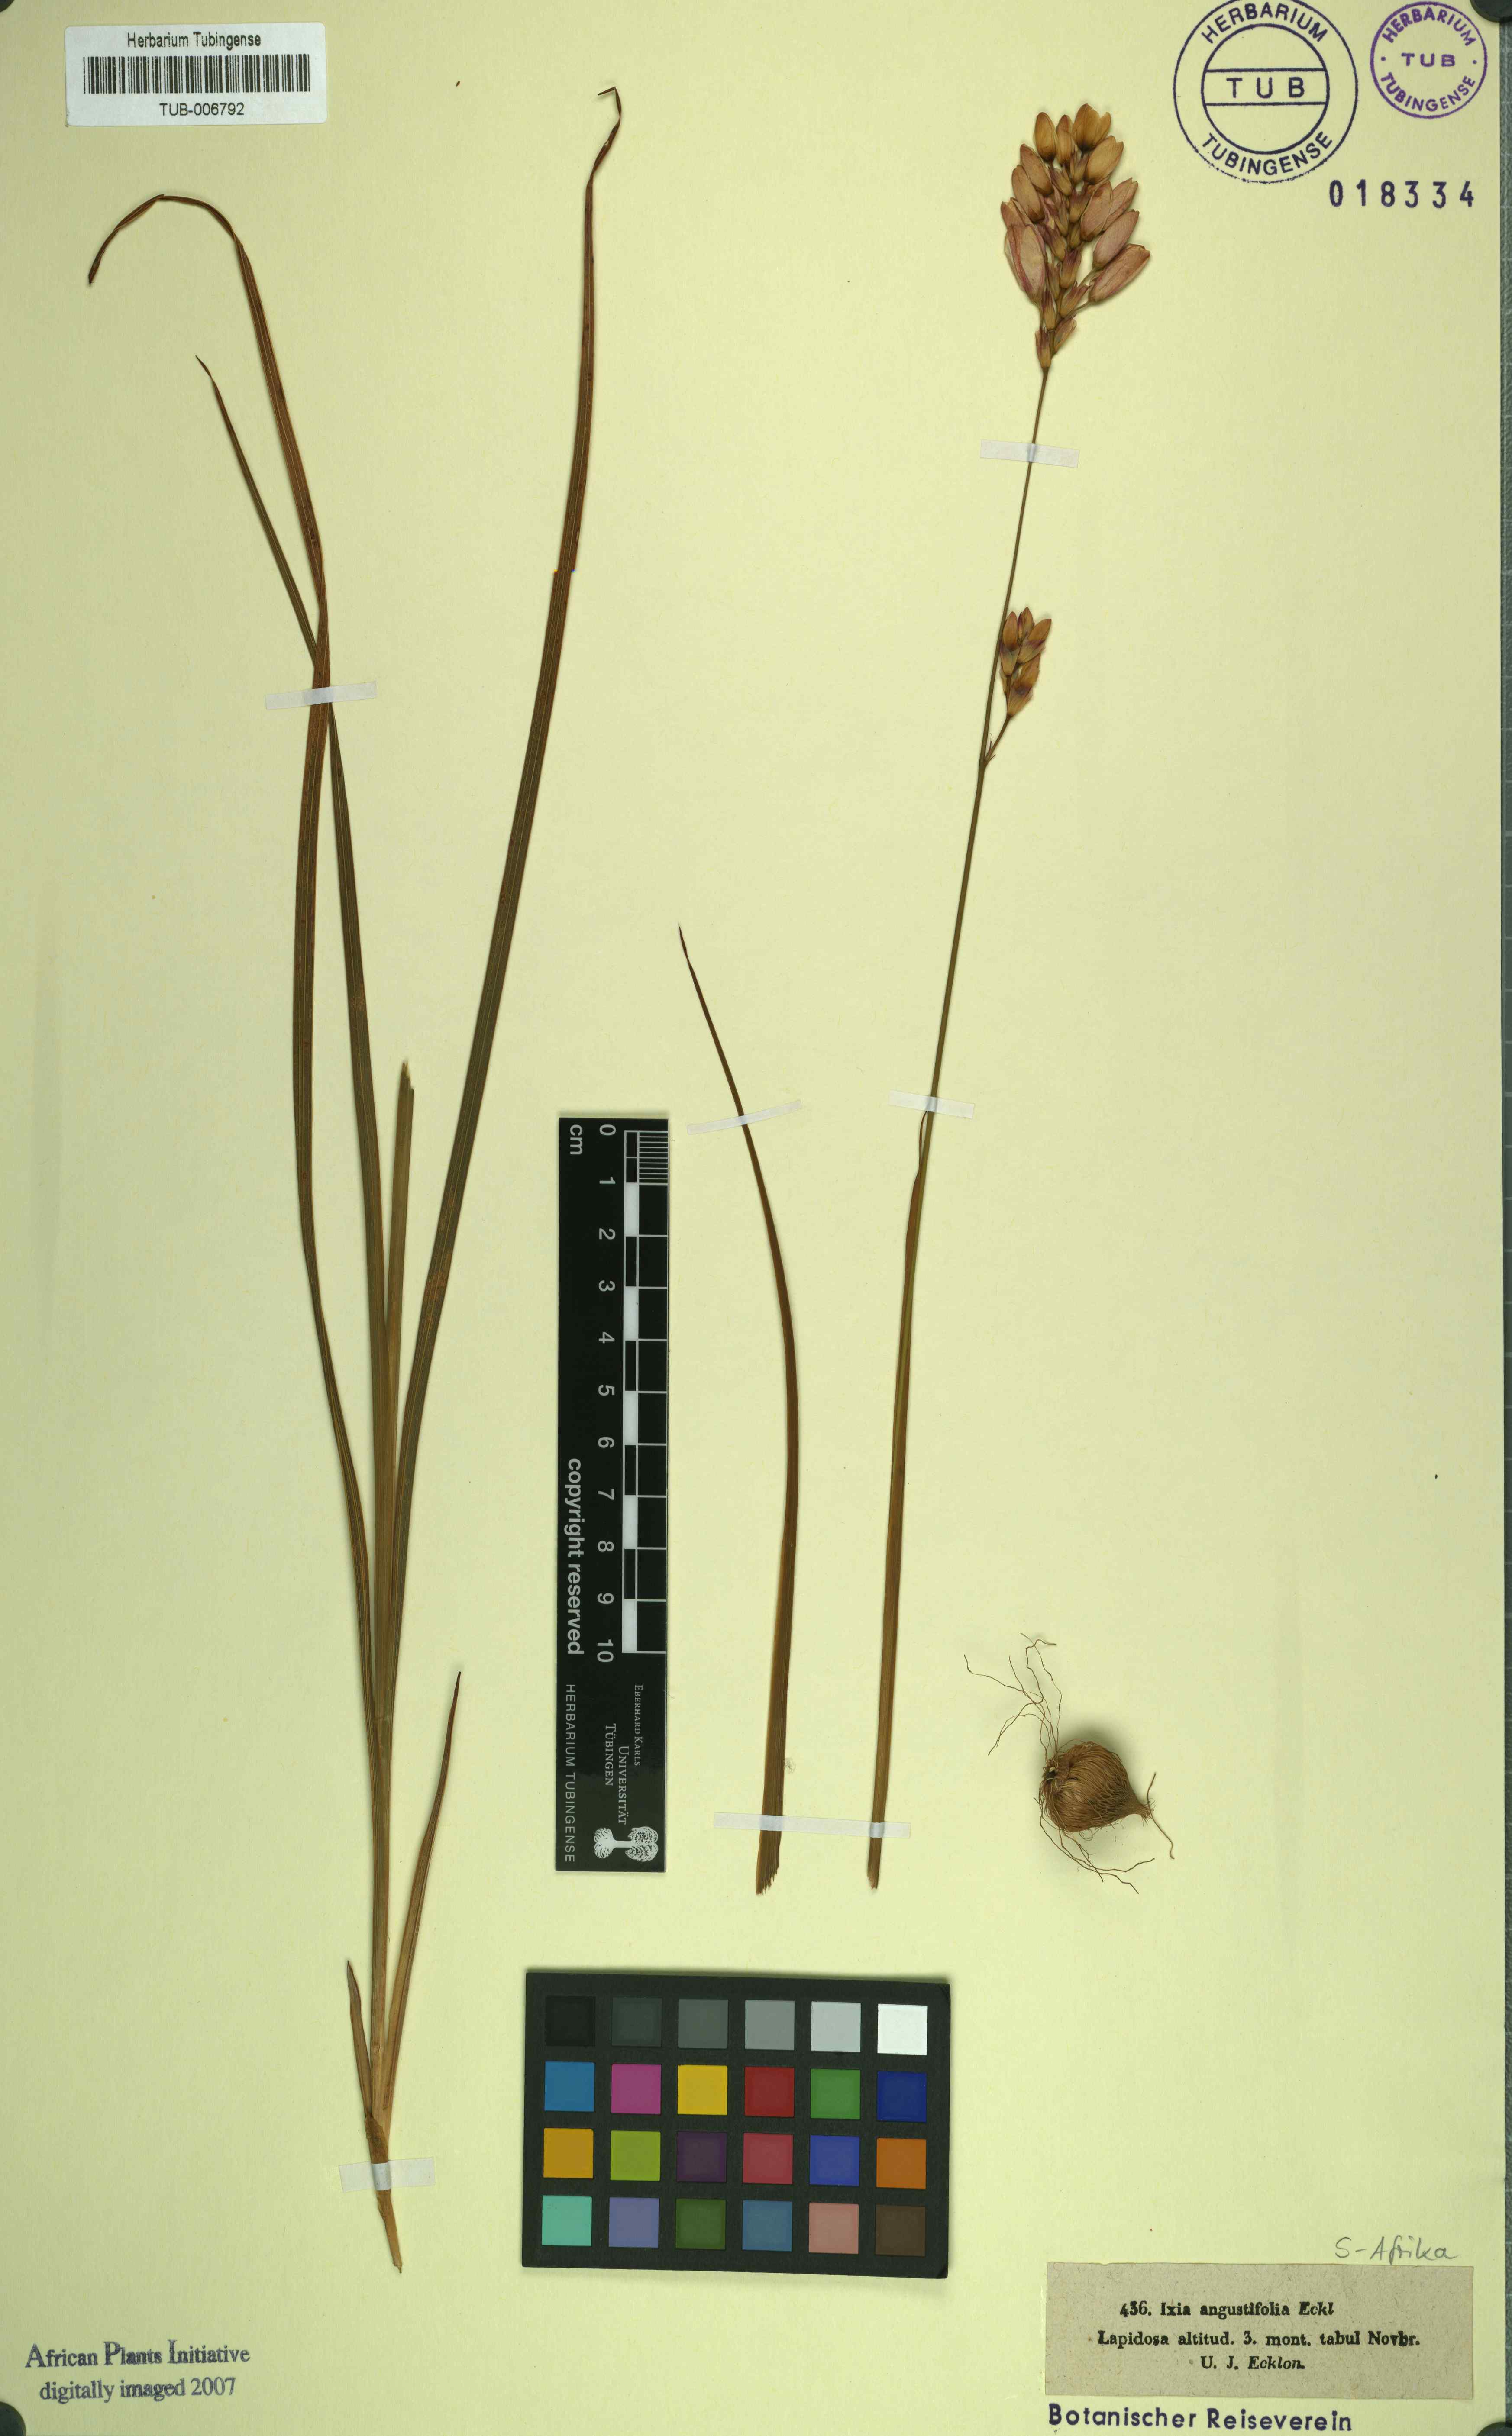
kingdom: Plantae
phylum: Tracheophyta
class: Liliopsida
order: Asparagales
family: Iridaceae
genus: Ixia
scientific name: Ixia angustifolia
